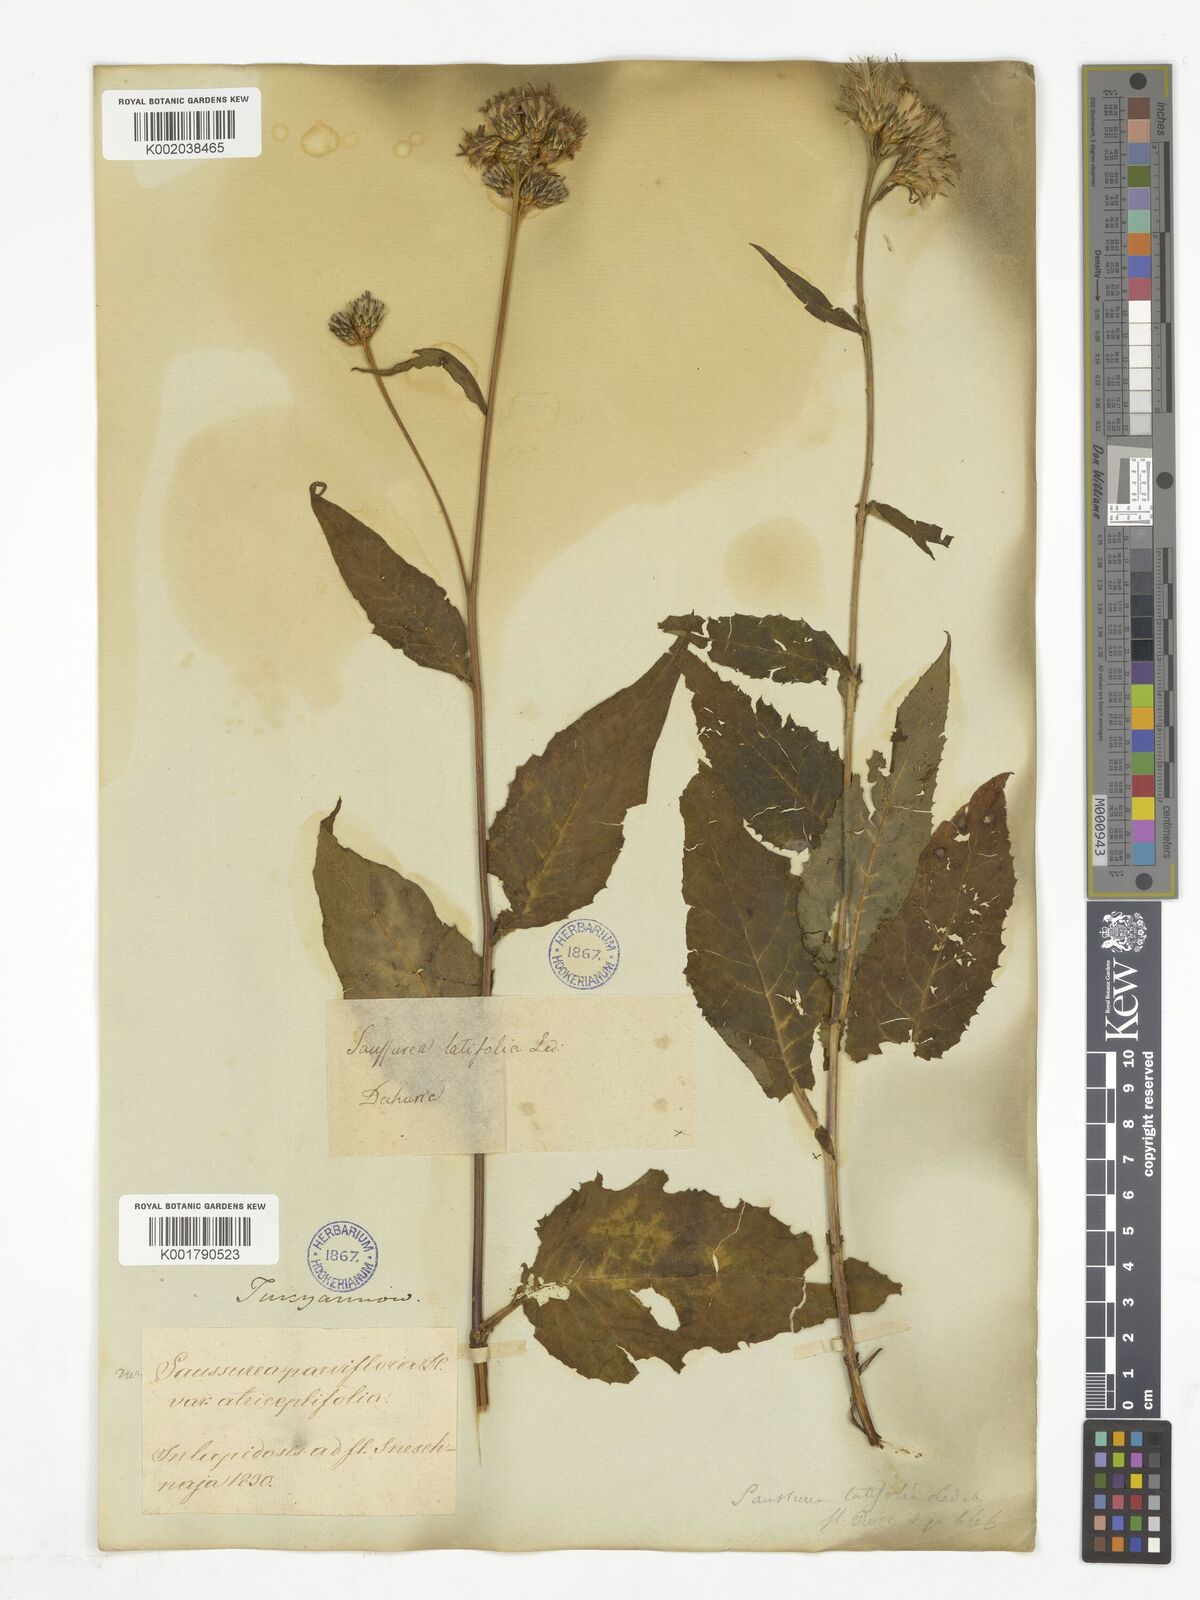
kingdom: Plantae
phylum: Tracheophyta
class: Magnoliopsida
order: Asterales
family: Asteraceae
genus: Saussurea
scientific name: Saussurea parviflora
